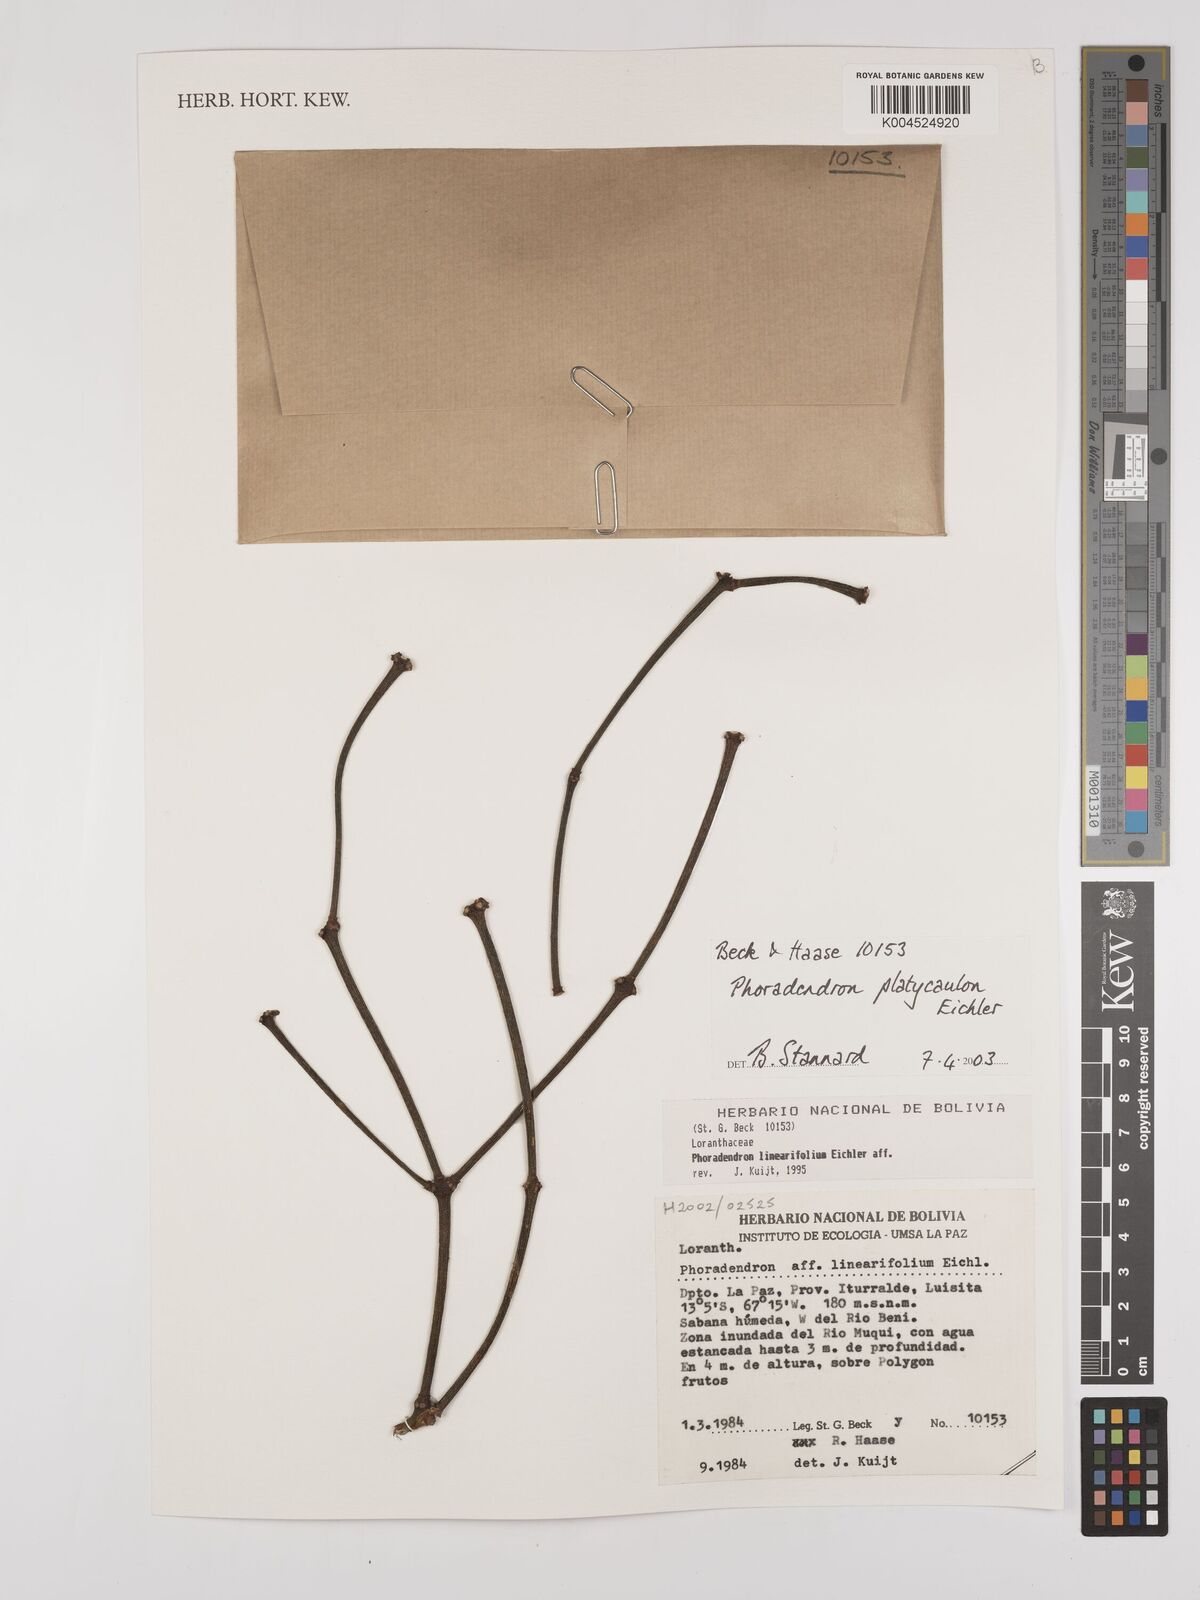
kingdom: Plantae
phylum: Tracheophyta
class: Magnoliopsida
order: Santalales
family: Viscaceae
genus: Phoradendron
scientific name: Phoradendron planiphyllum
